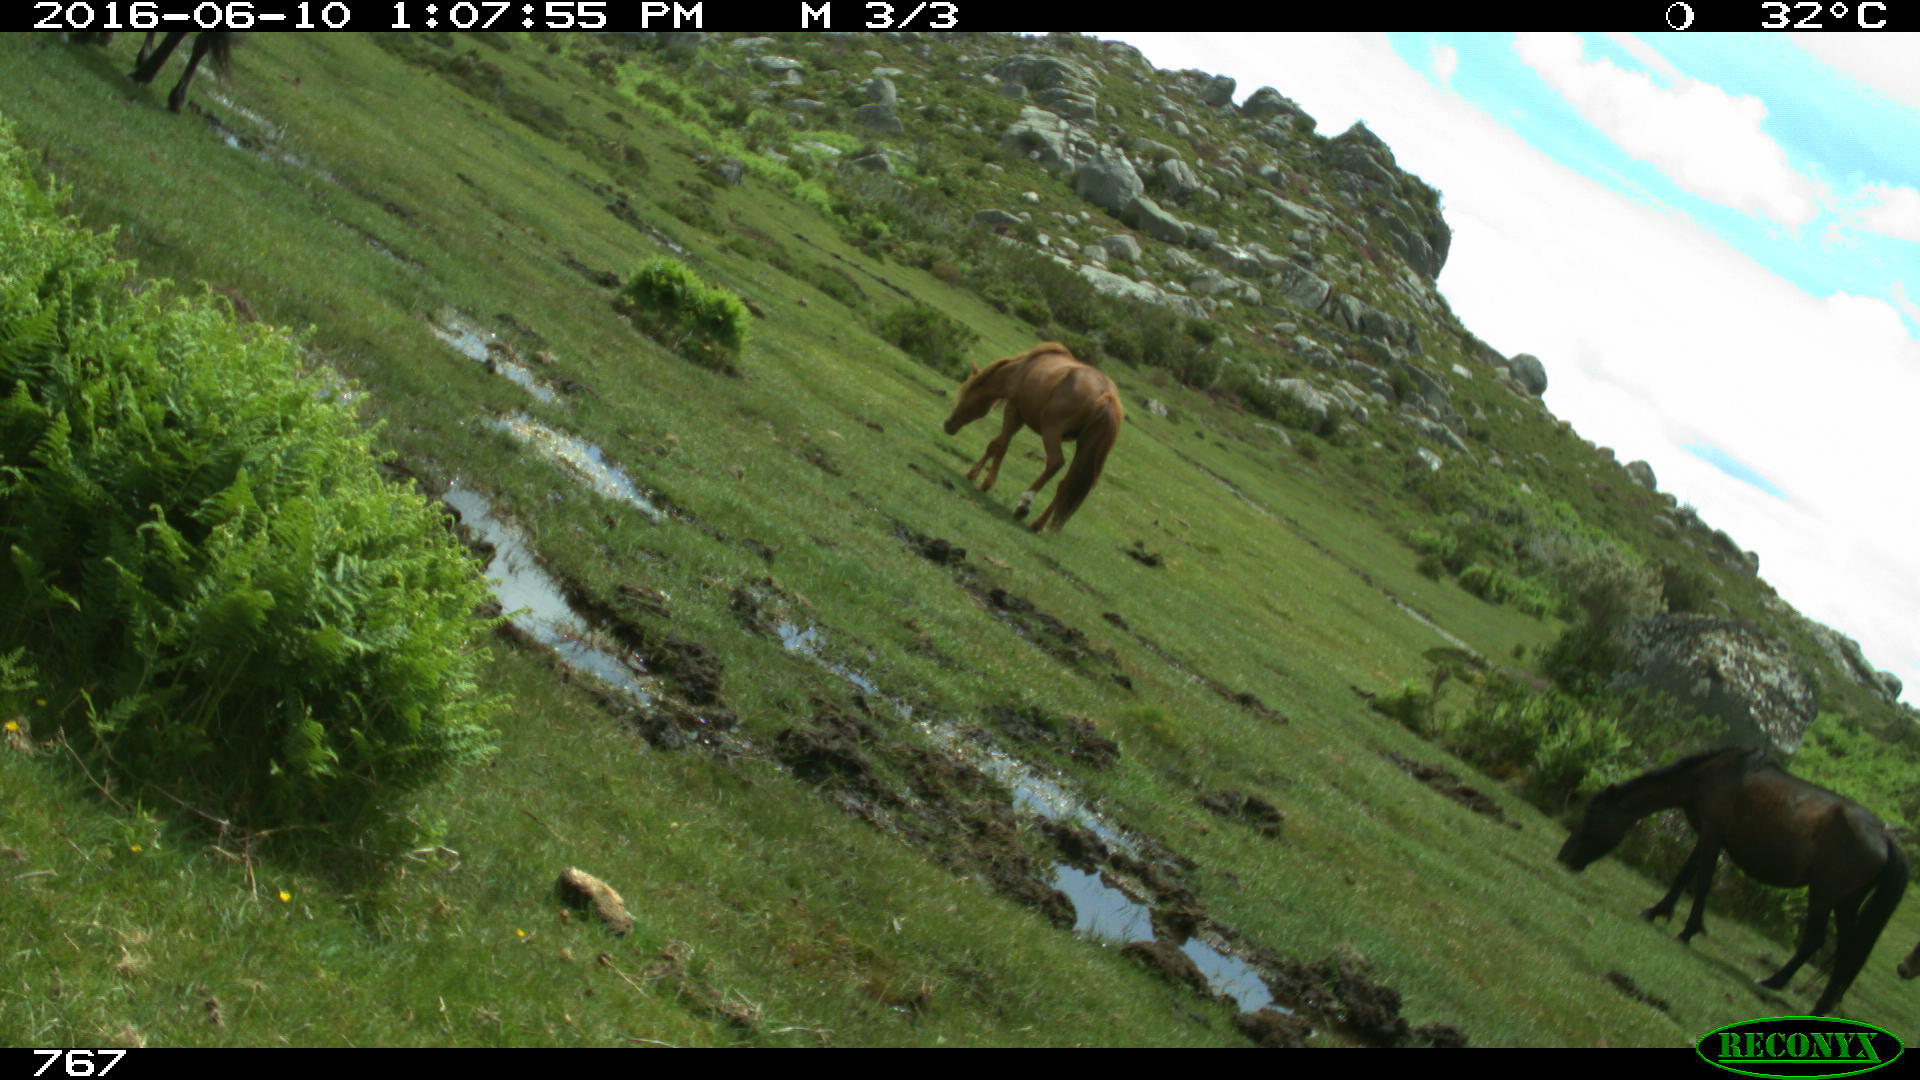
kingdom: Animalia
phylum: Chordata
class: Mammalia
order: Perissodactyla
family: Equidae
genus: Equus
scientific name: Equus caballus
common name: Horse
